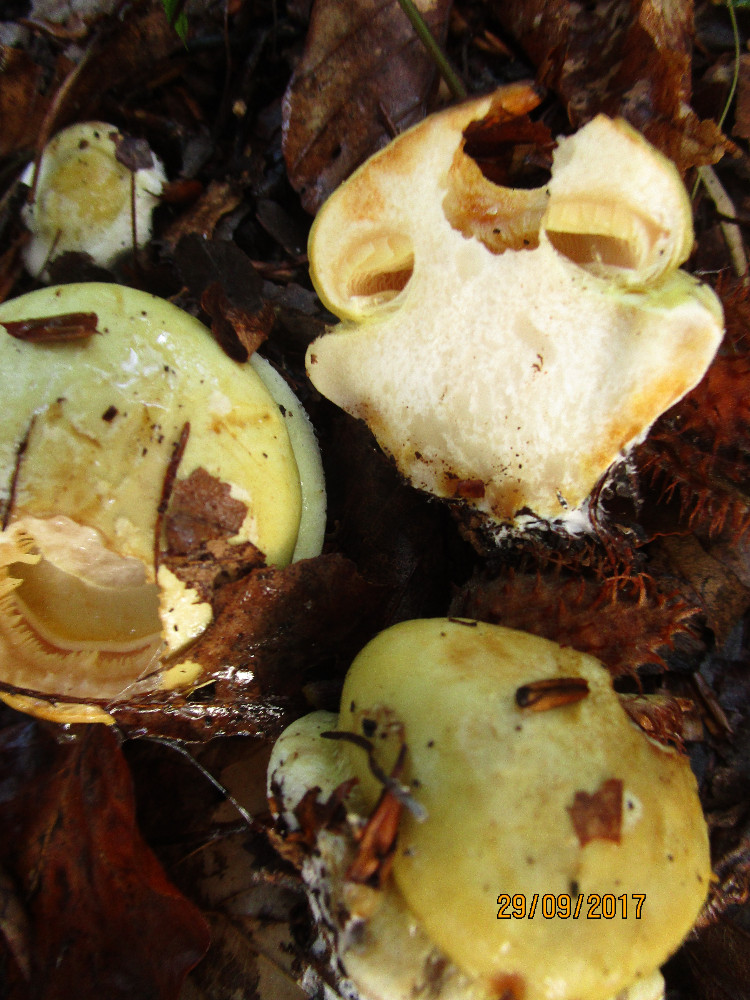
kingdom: Fungi
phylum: Basidiomycota
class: Agaricomycetes
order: Agaricales
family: Cortinariaceae
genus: Calonarius
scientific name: Calonarius humolens
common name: radise-slørhat
